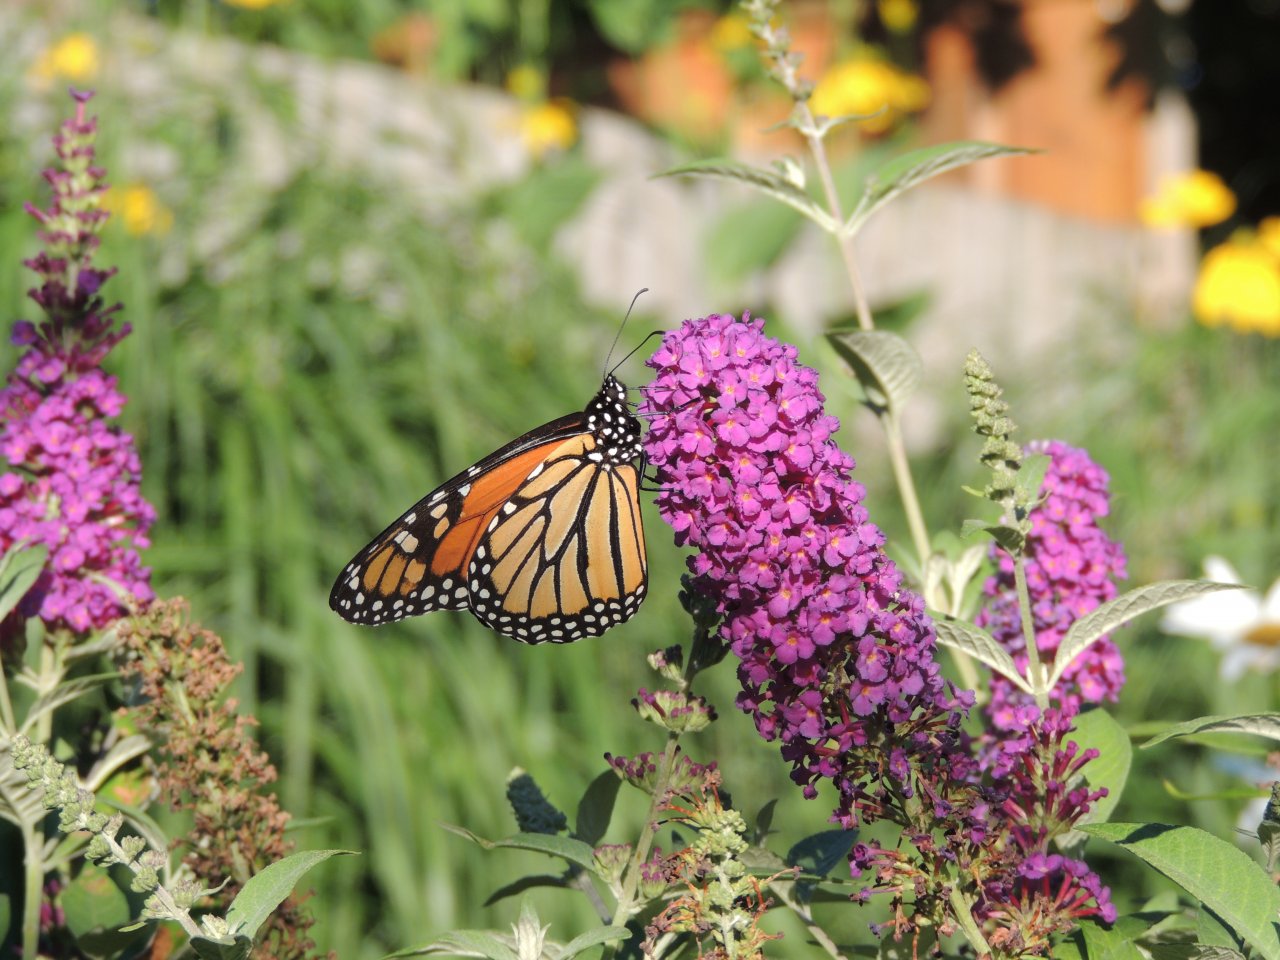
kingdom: Animalia
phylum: Arthropoda
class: Insecta
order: Lepidoptera
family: Nymphalidae
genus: Danaus
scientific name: Danaus plexippus
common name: Monarch
